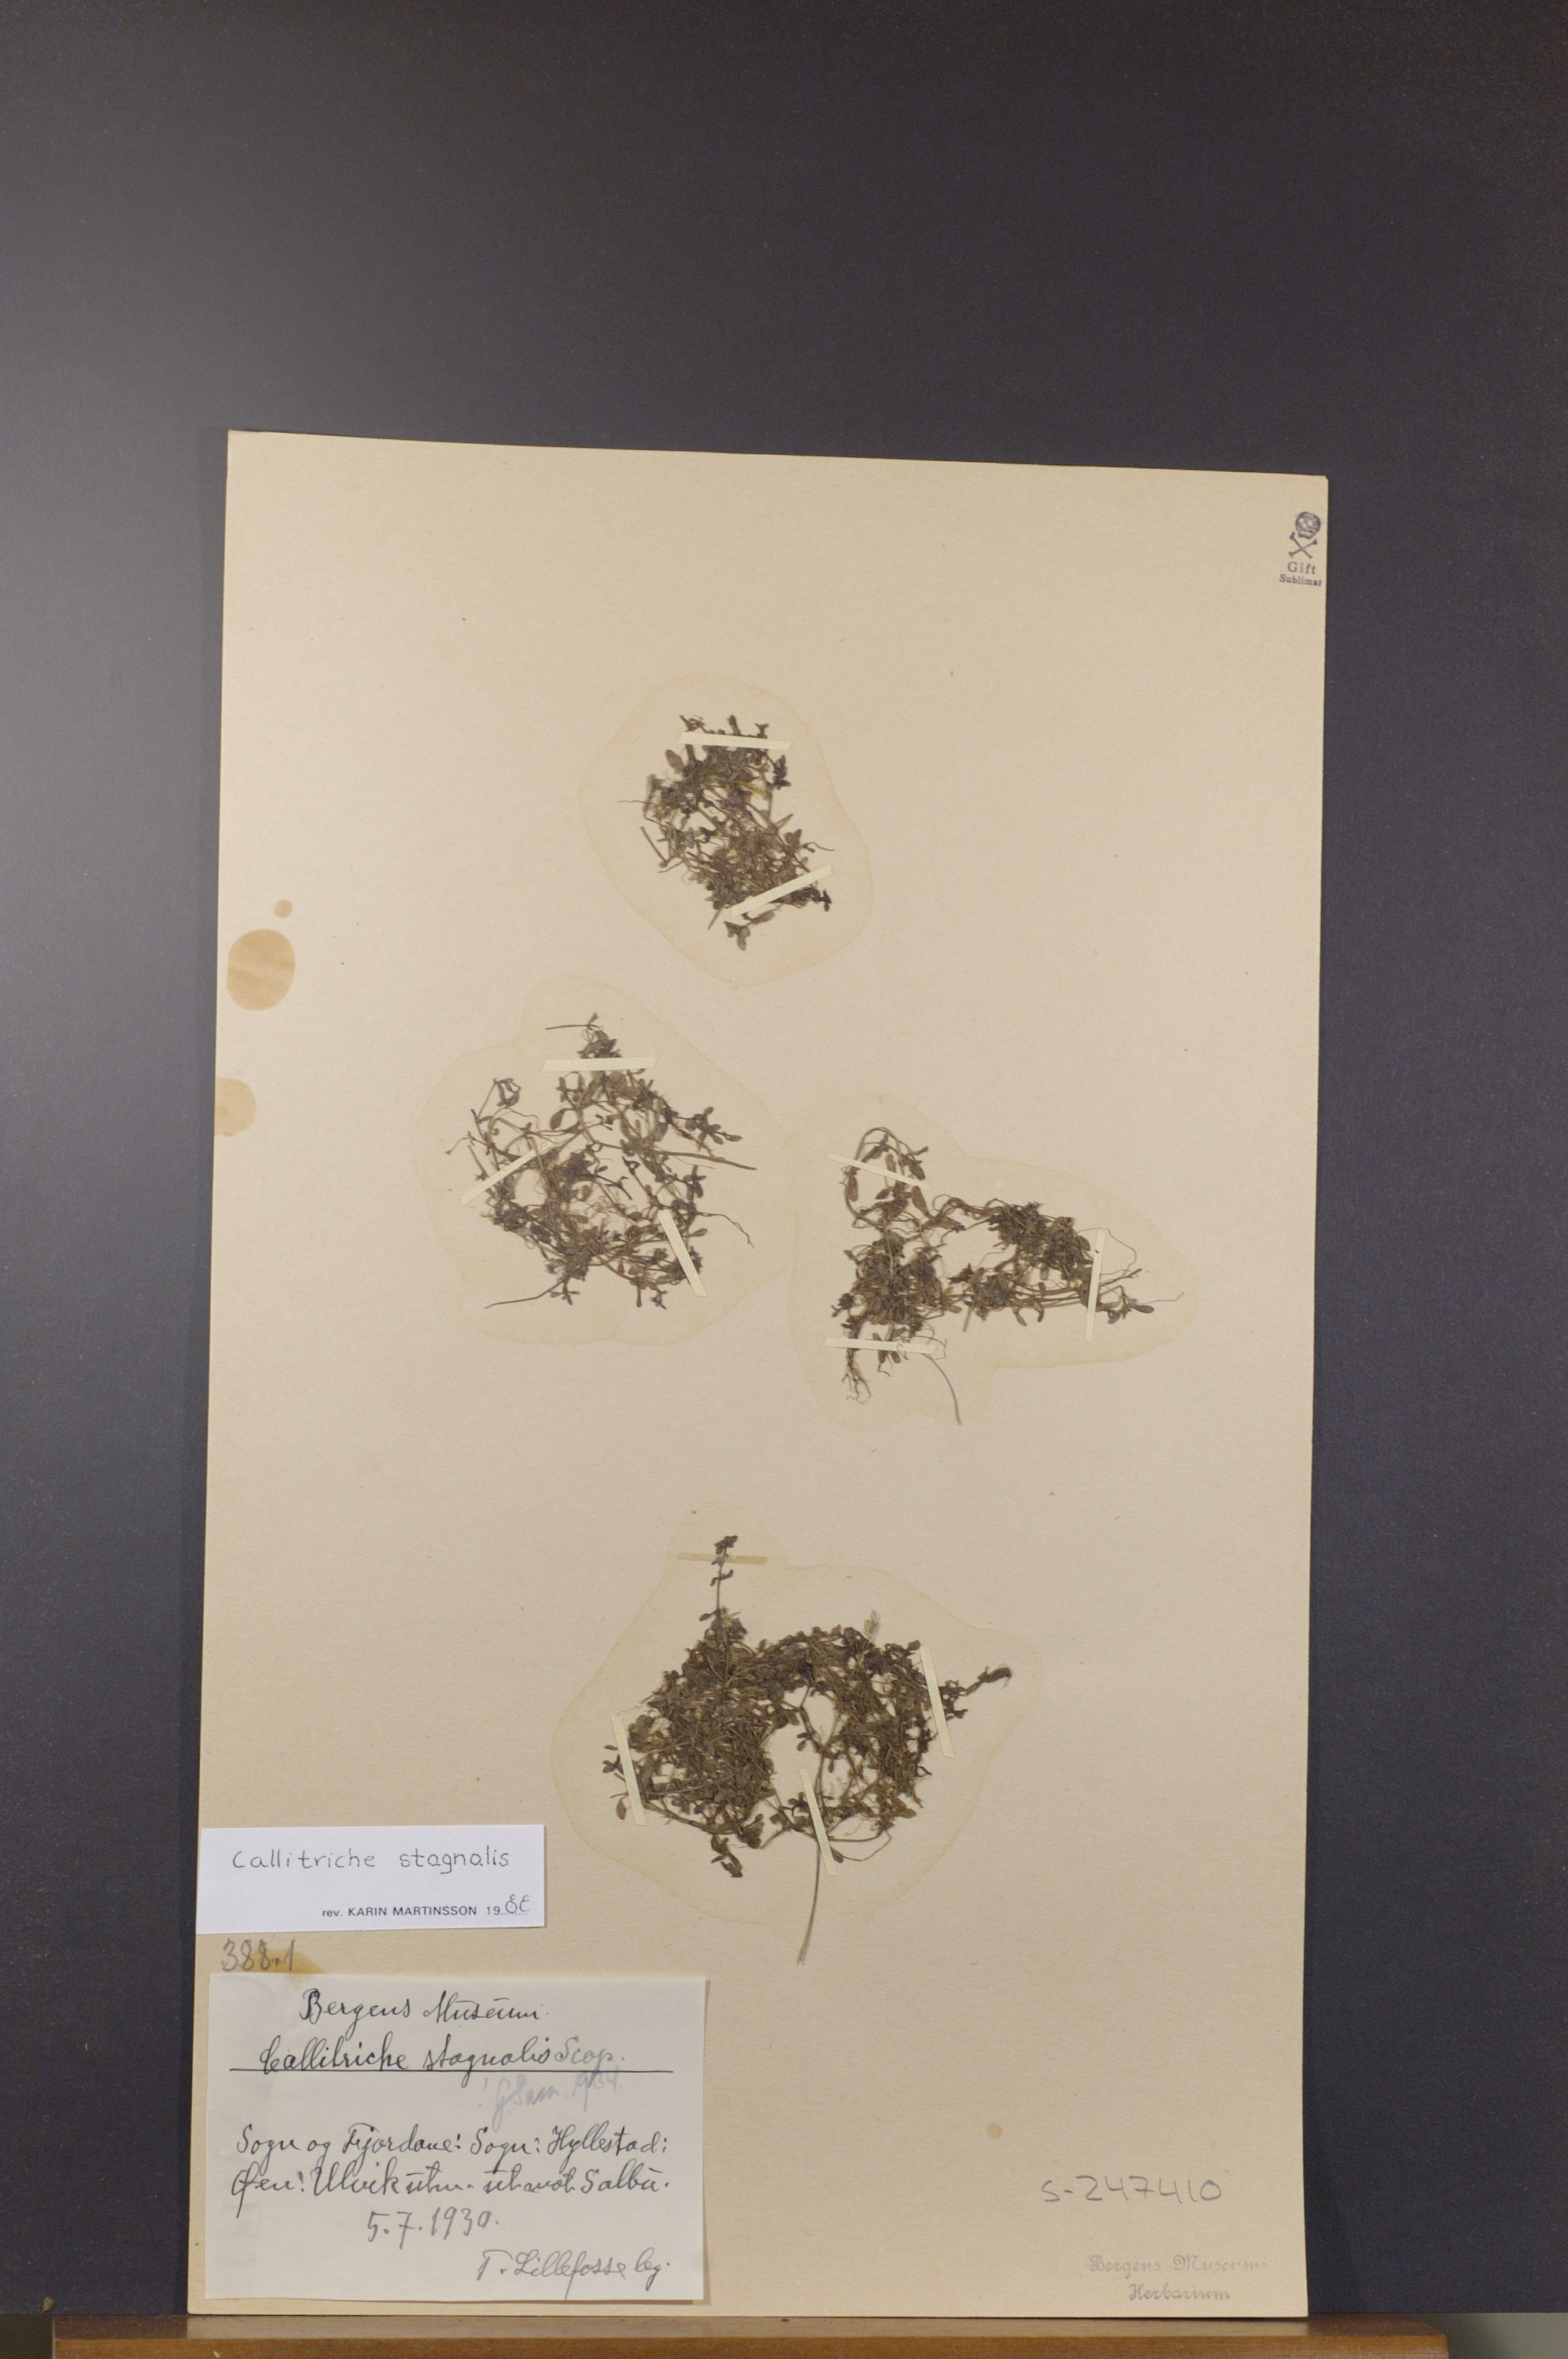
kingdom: Plantae
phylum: Tracheophyta
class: Magnoliopsida
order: Lamiales
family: Plantaginaceae
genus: Callitriche
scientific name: Callitriche stagnalis
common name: Common water-starwort
